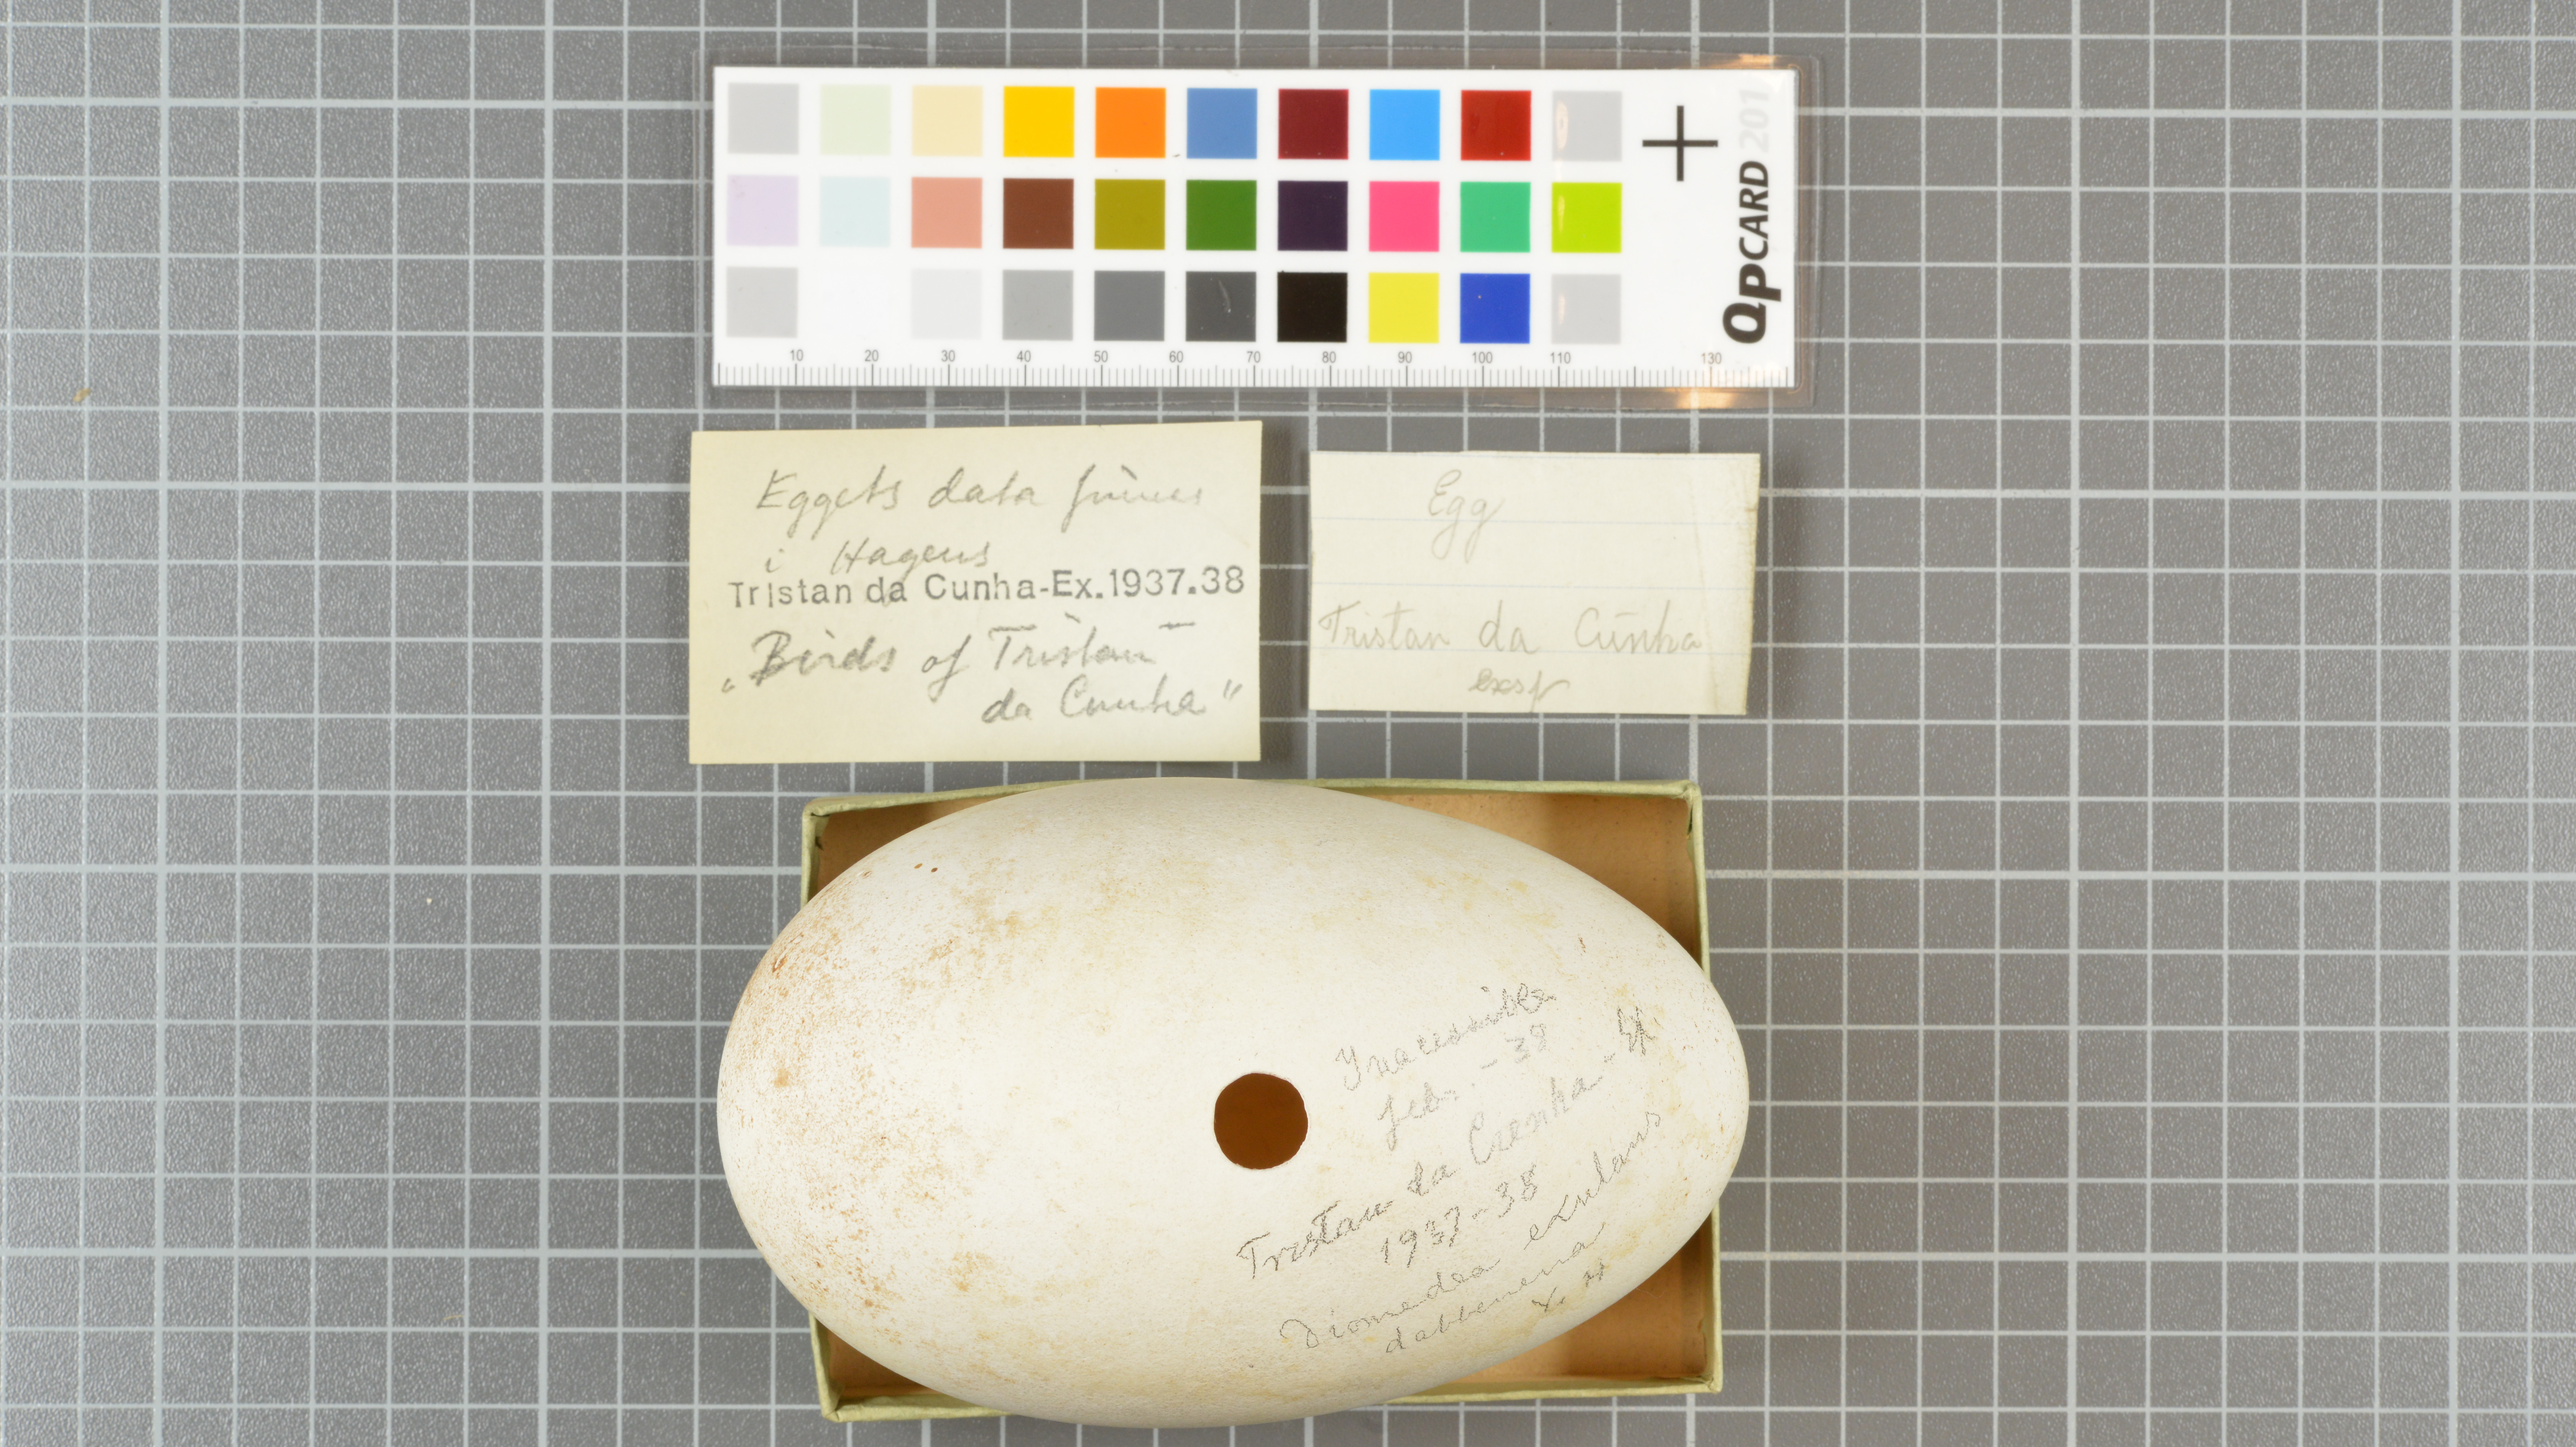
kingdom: Animalia
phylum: Chordata
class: Aves
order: Procellariiformes
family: Diomedeidae
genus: Diomedea
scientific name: Diomedea dabbenena
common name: Tristan albatross
